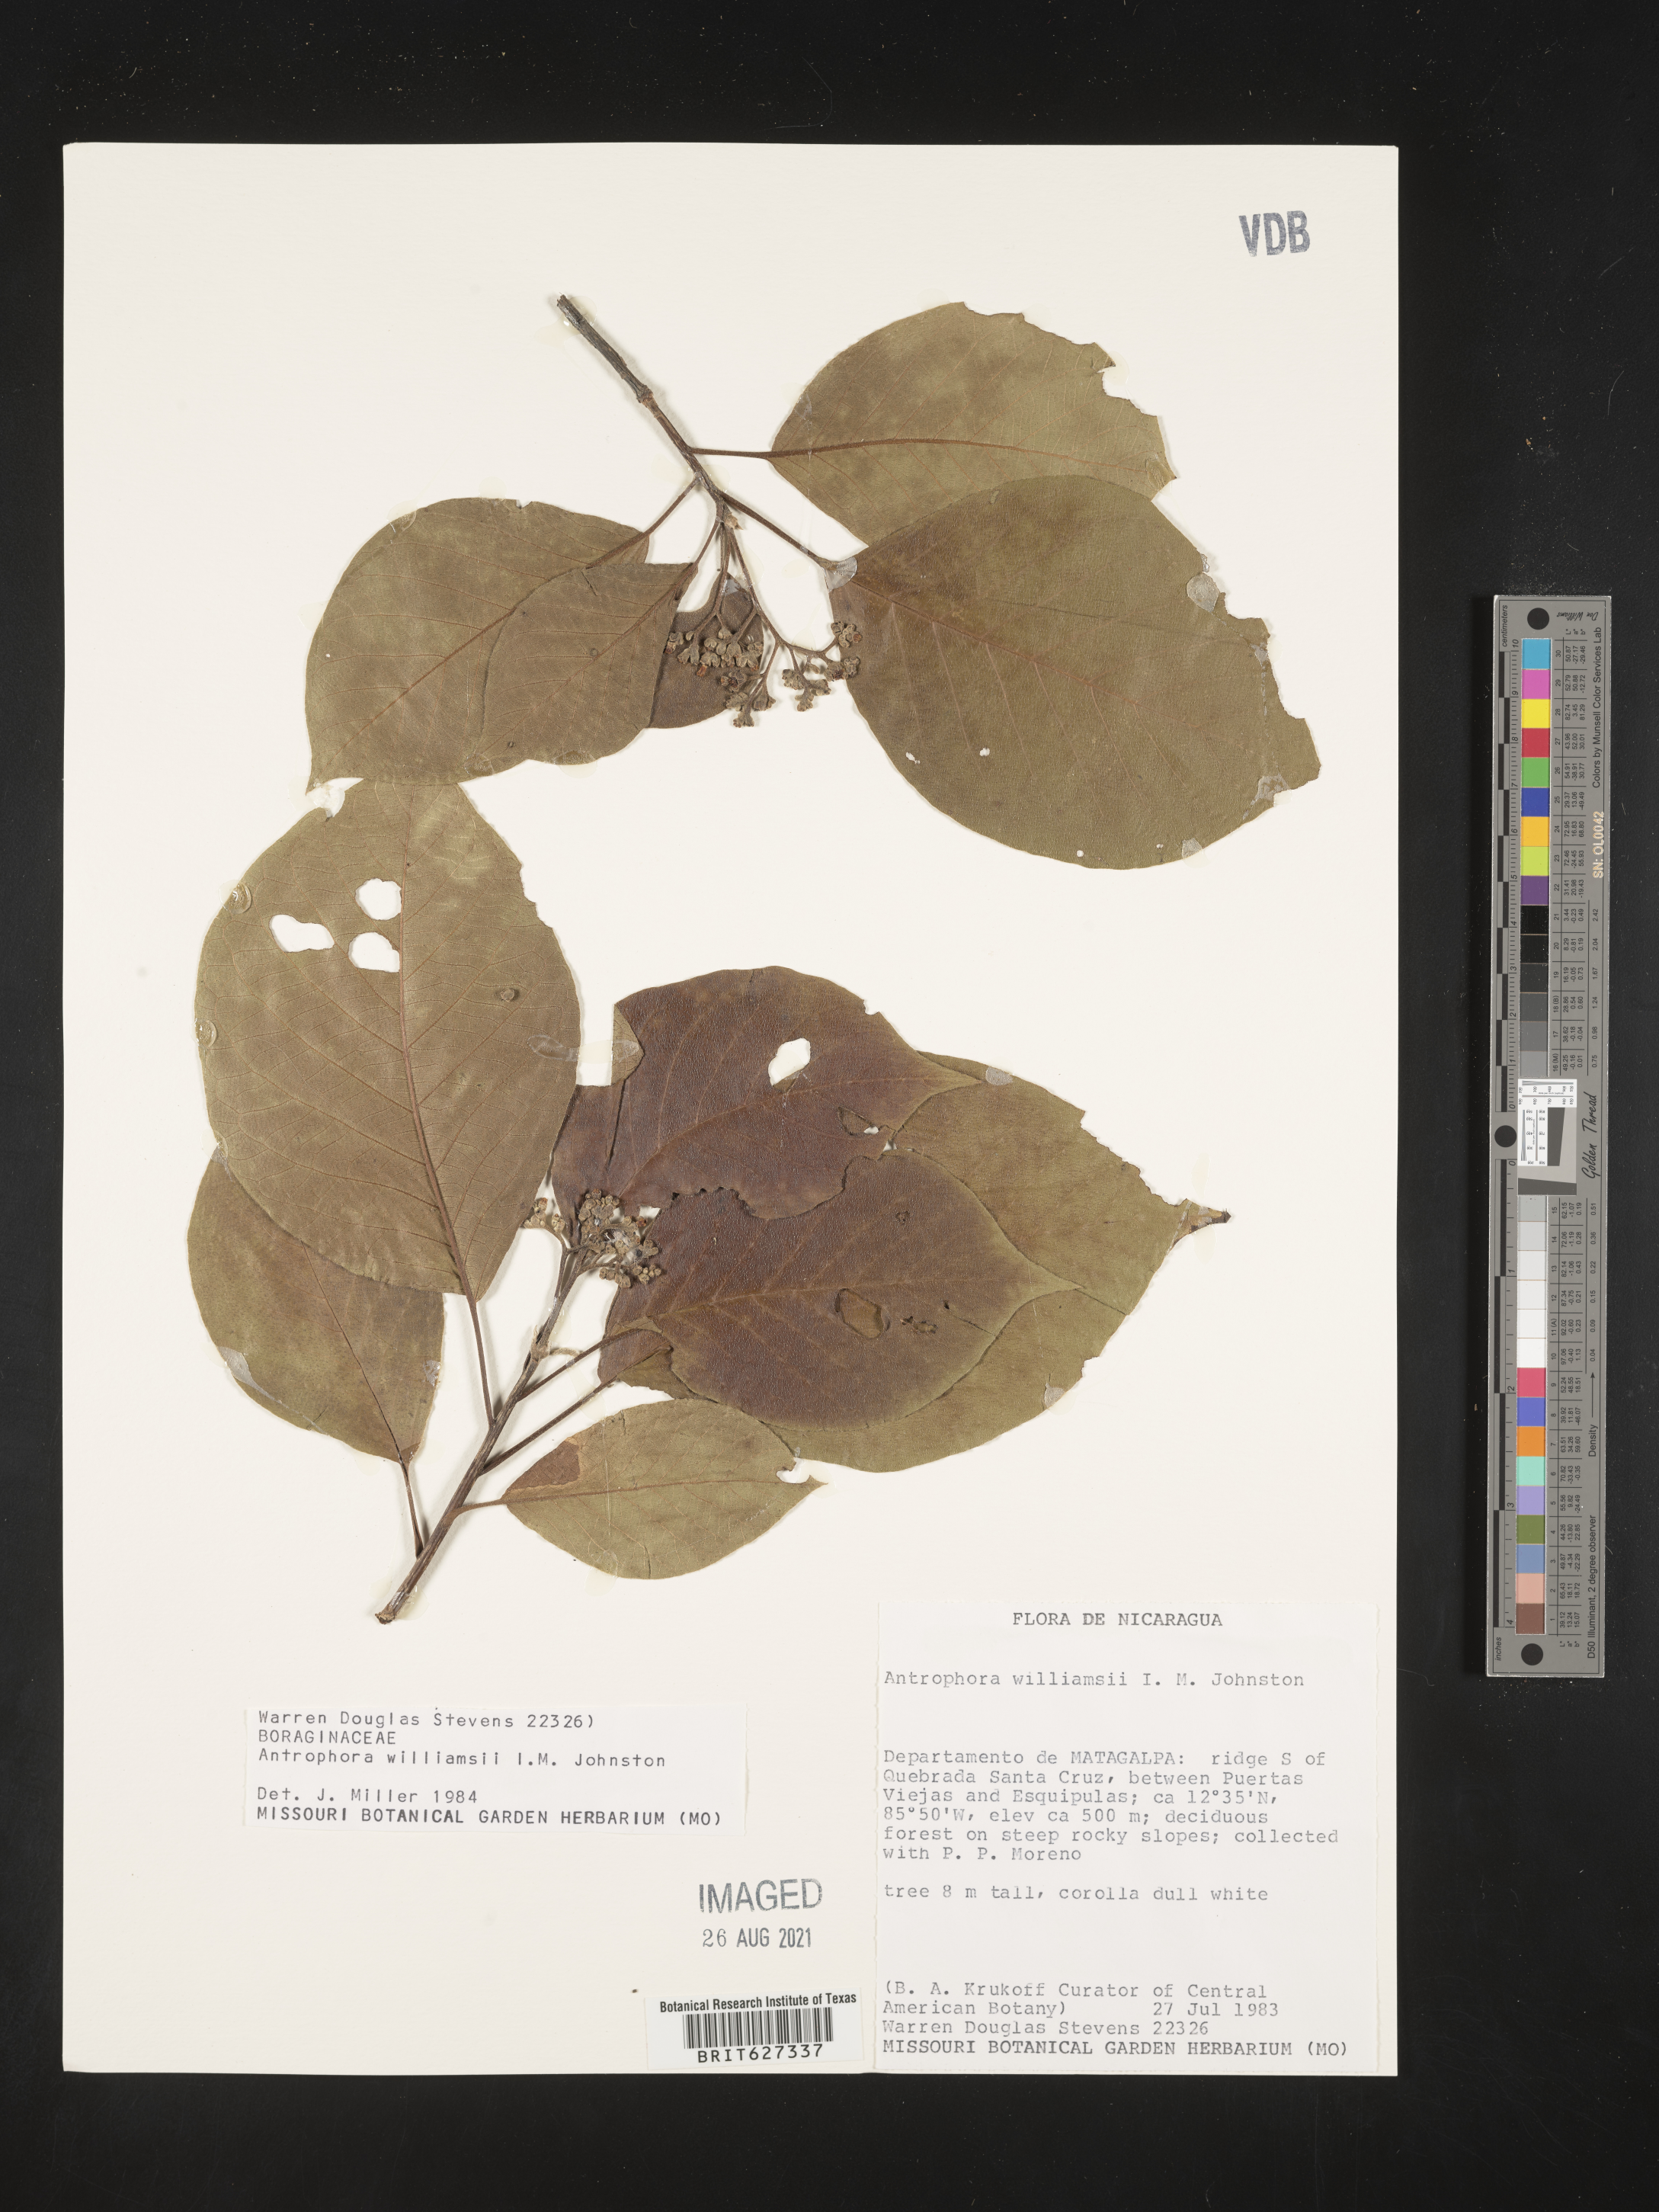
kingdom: Plantae
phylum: Tracheophyta
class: Magnoliopsida
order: Boraginales
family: Ehretiaceae
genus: Lepidocordia
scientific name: Lepidocordia williamsii
